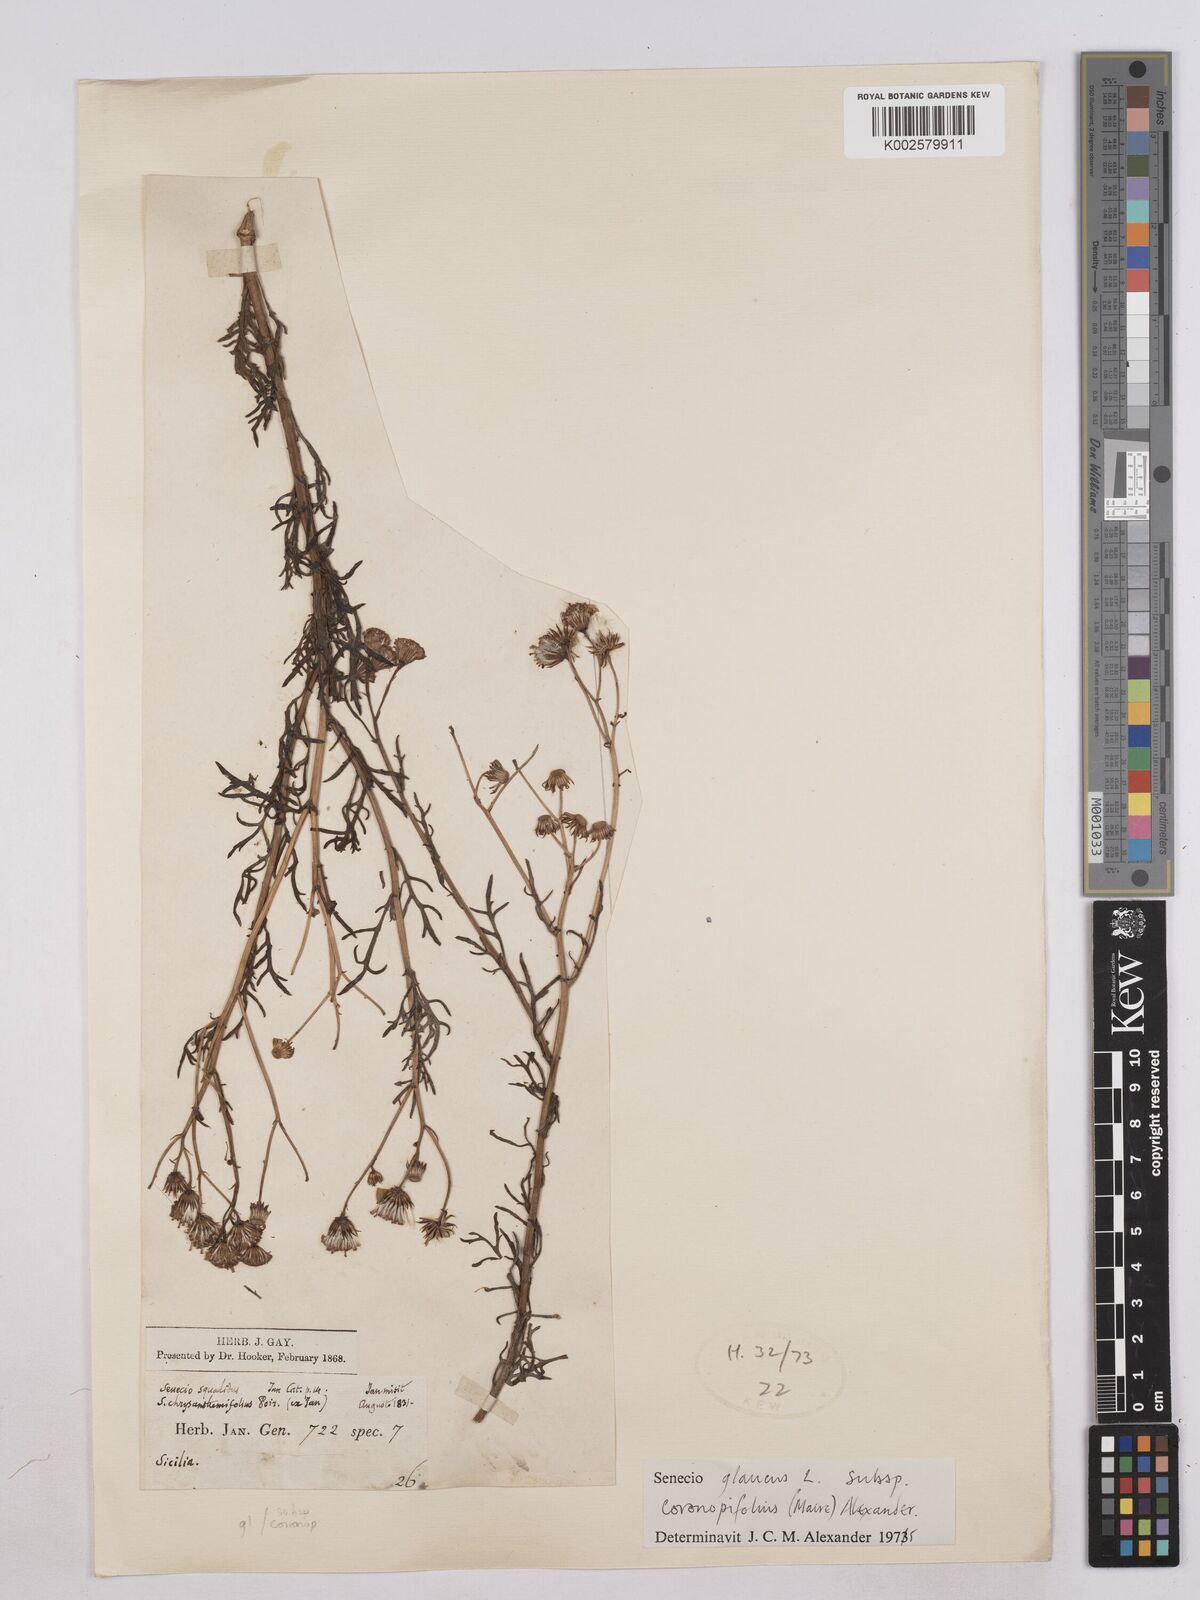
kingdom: Plantae
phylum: Tracheophyta
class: Magnoliopsida
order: Asterales
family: Asteraceae
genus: Senecio
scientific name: Senecio glaucus
